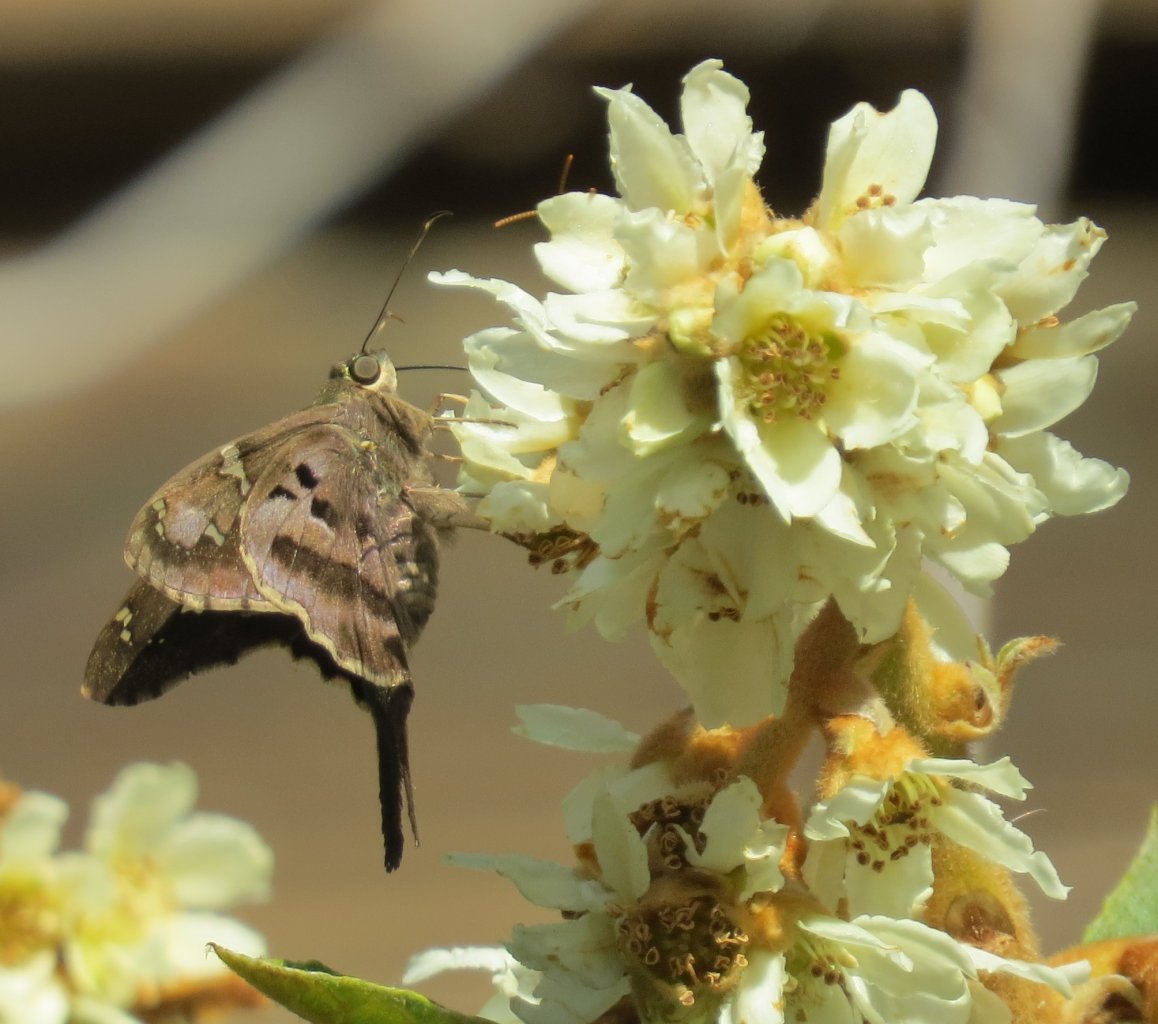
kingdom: Animalia
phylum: Arthropoda
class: Insecta
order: Lepidoptera
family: Hesperiidae
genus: Urbanus
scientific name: Urbanus proteus
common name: Long-tailed Skipper
